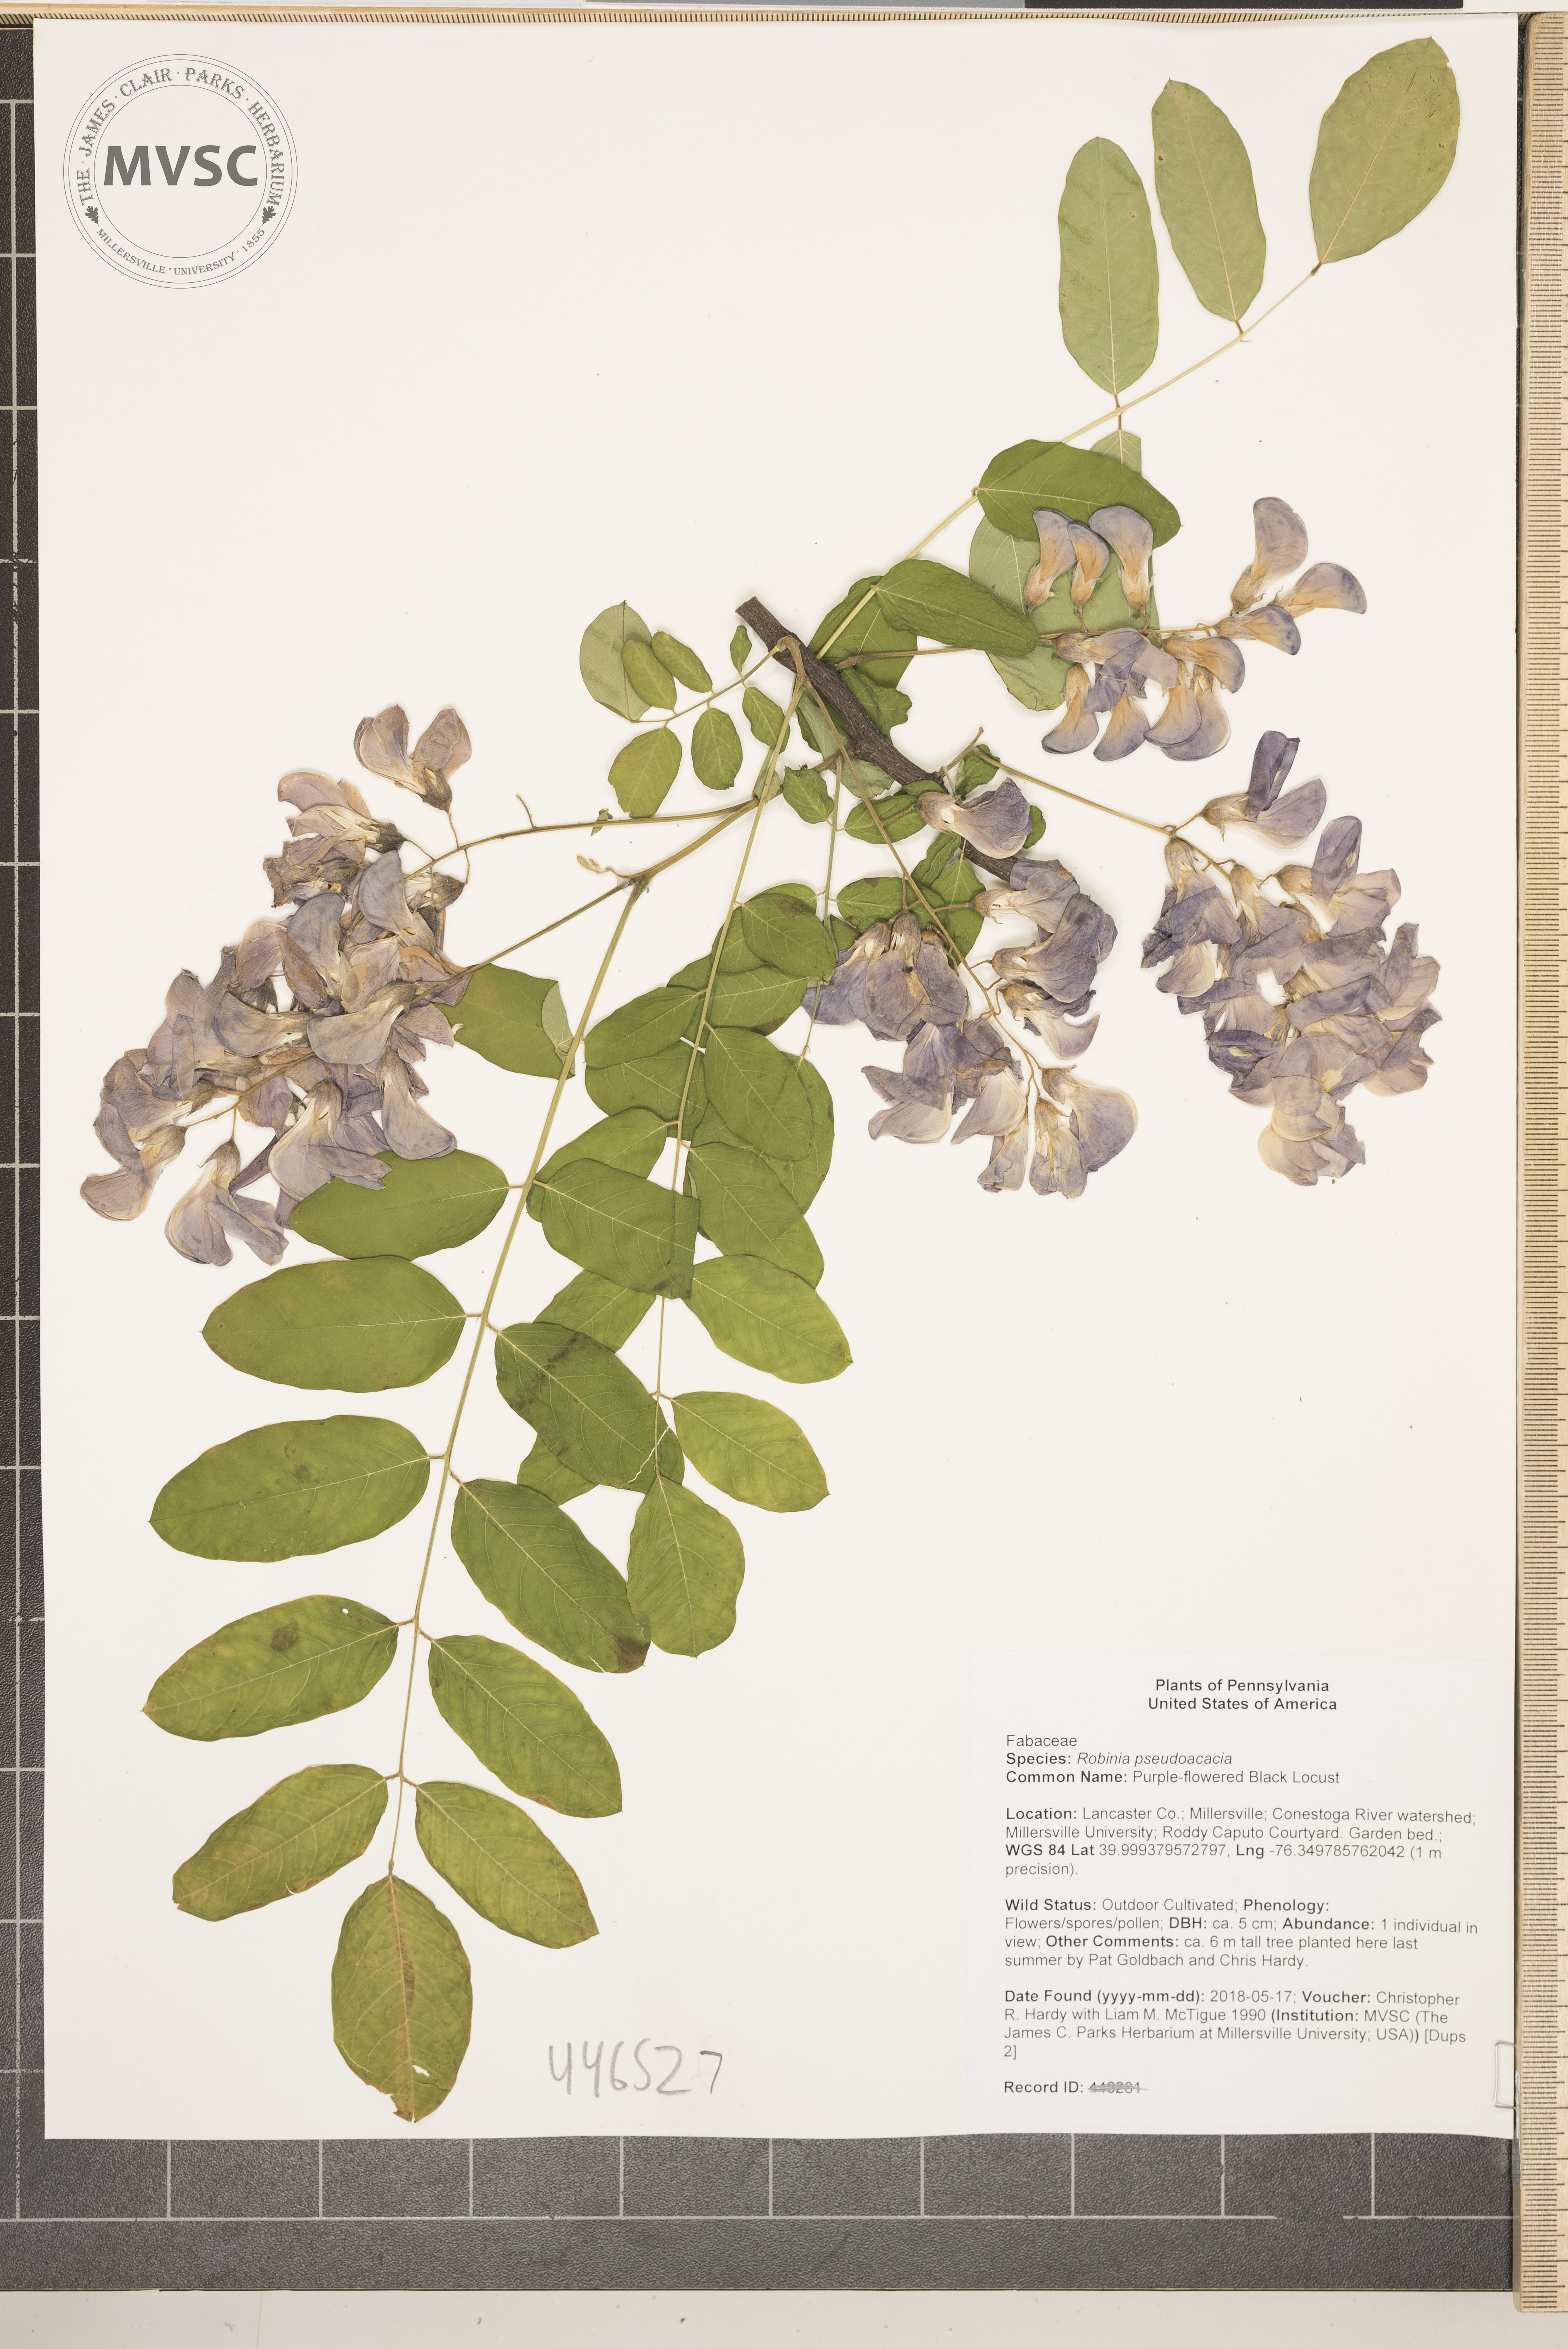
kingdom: Plantae
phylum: Tracheophyta
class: Magnoliopsida
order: Fabales
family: Fabaceae
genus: Robinia
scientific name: Robinia pseudoacacia
